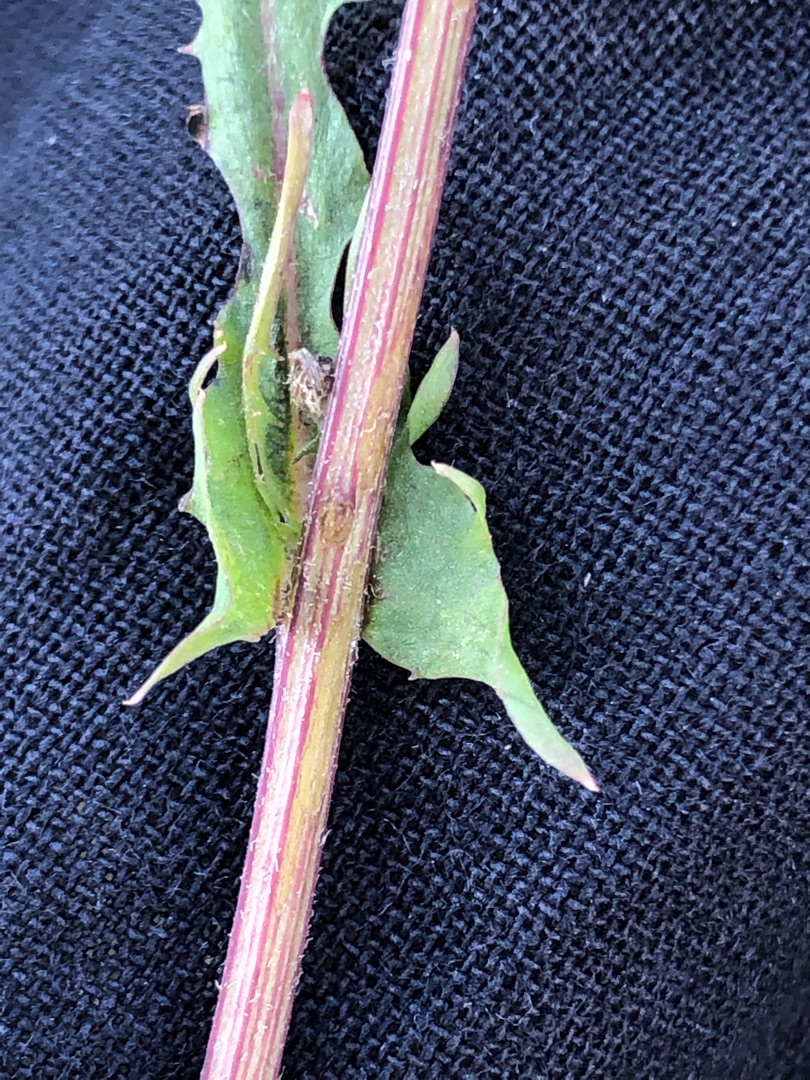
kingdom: Plantae
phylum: Tracheophyta
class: Magnoliopsida
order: Asterales
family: Asteraceae
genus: Crepis
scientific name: Crepis capillaris
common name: Grøn høgeskæg
